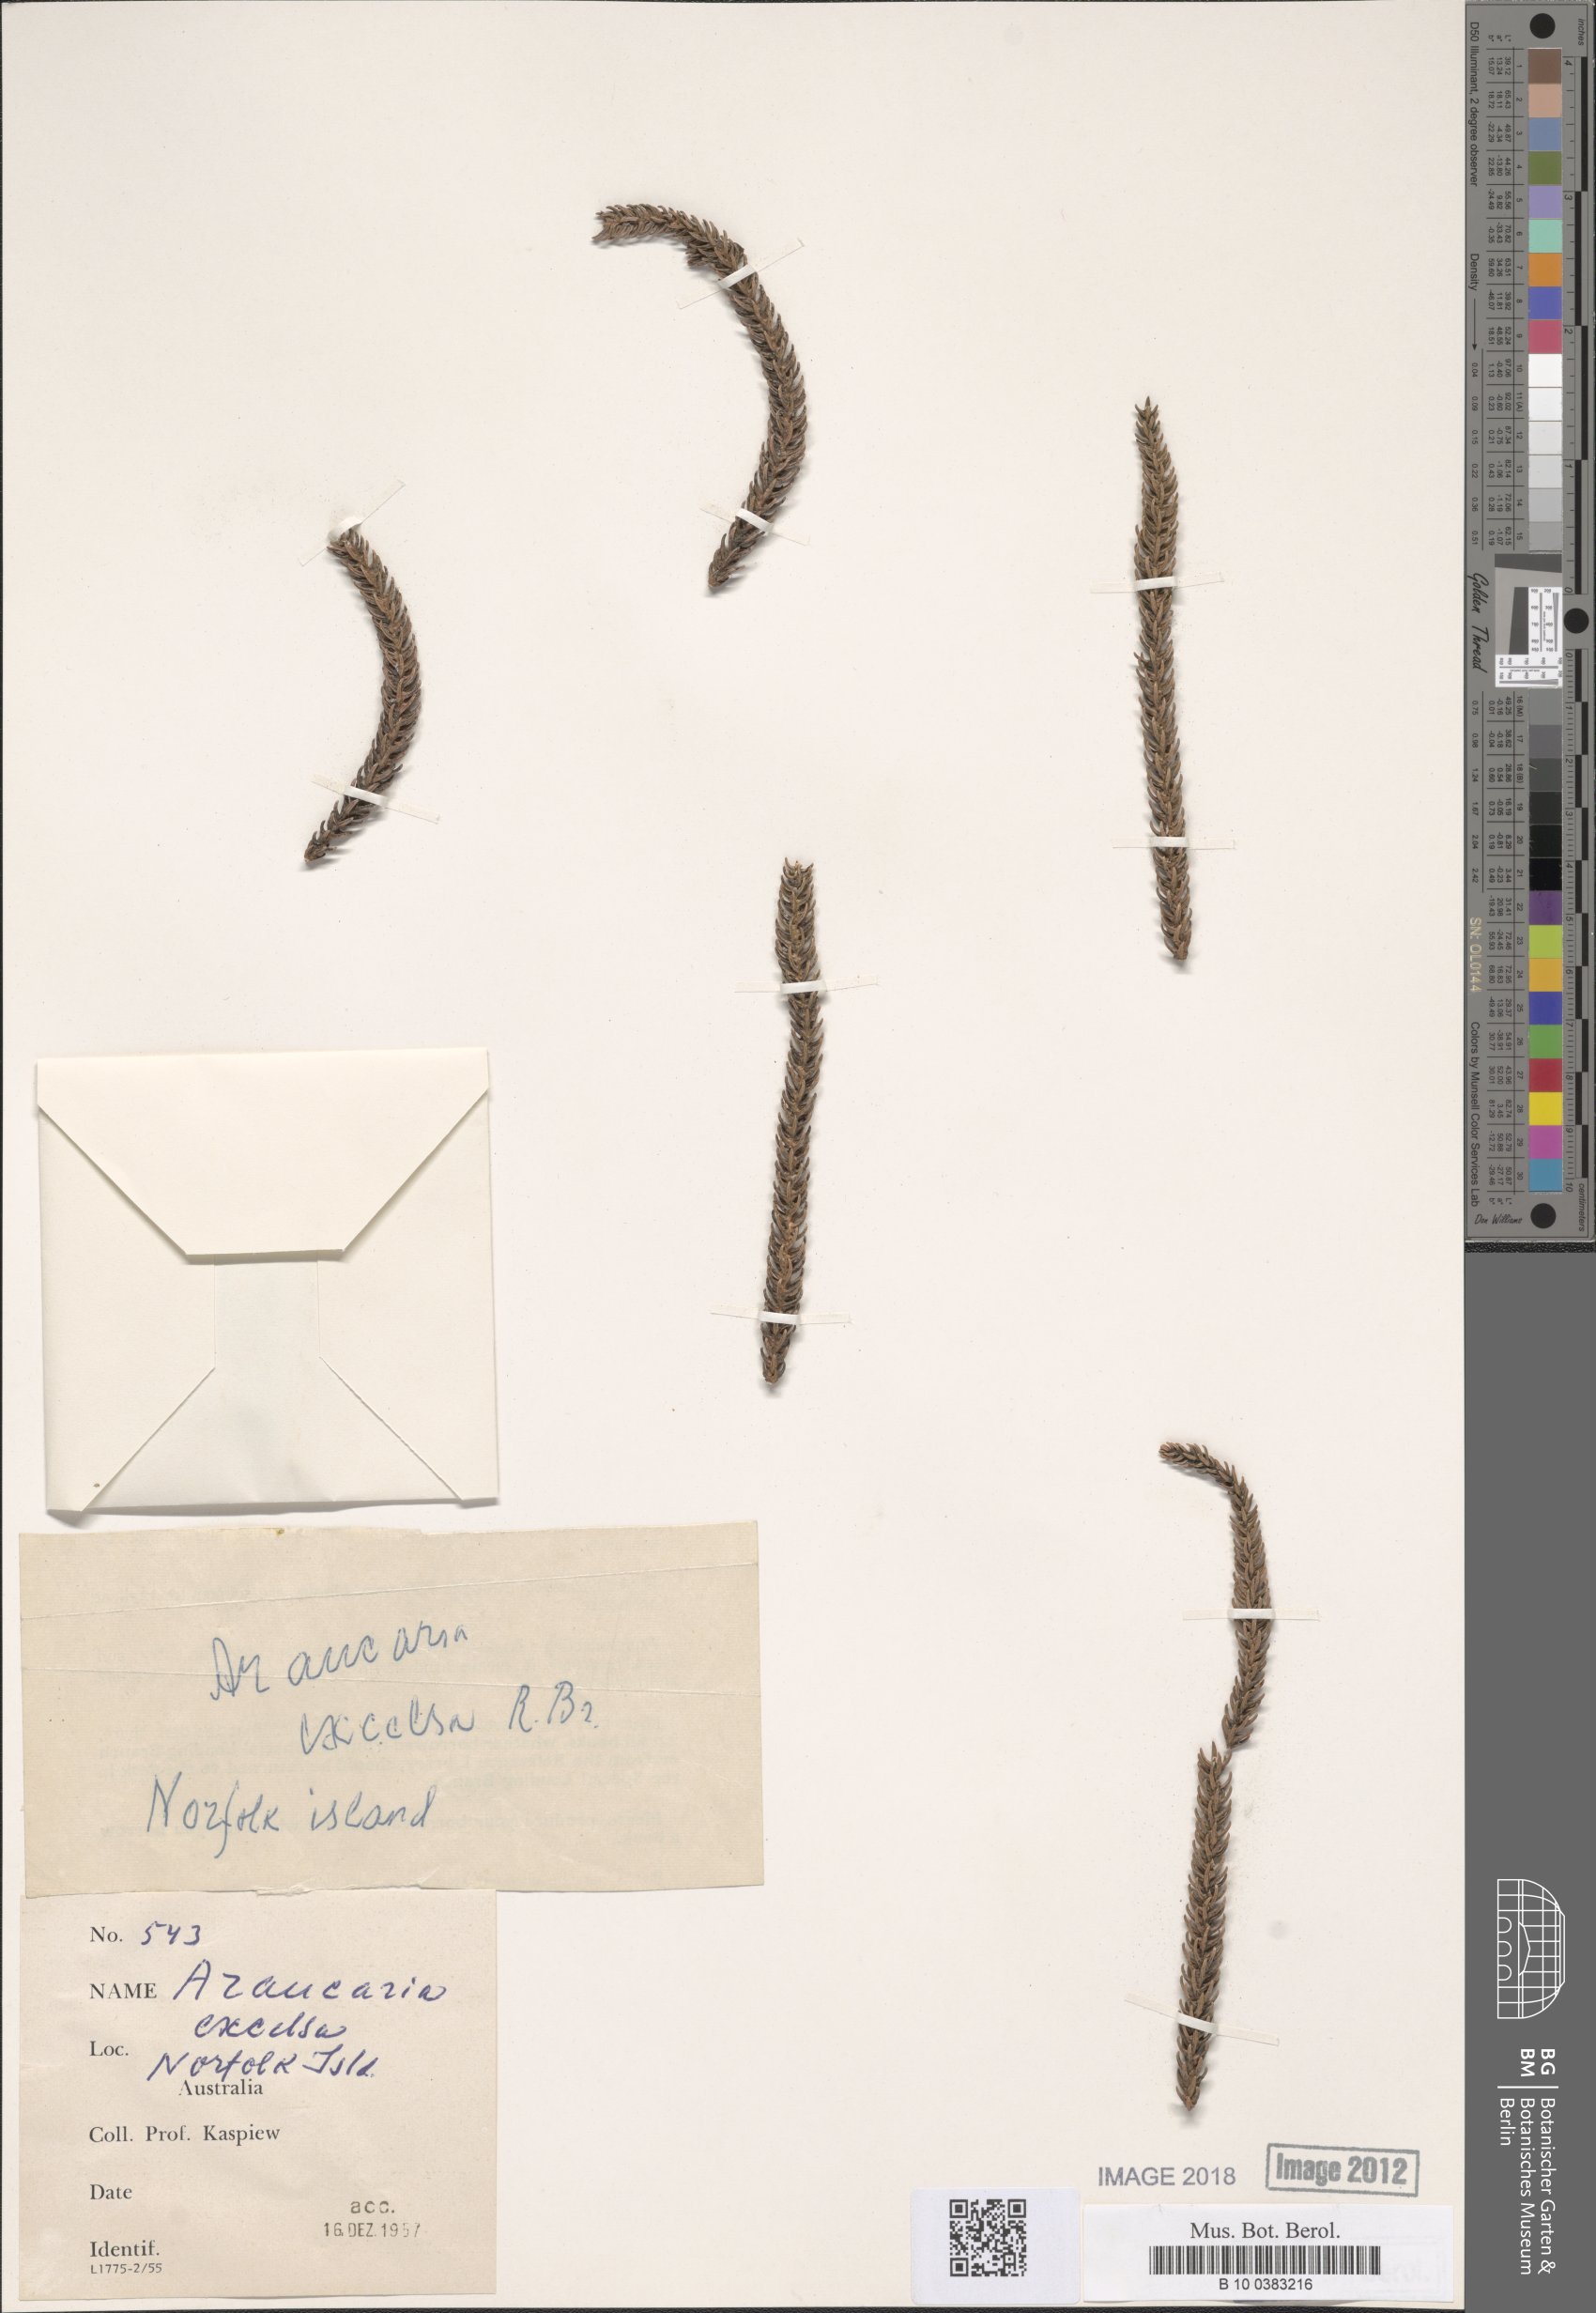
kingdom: Plantae
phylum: Tracheophyta
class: Pinopsida
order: Pinales
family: Araucariaceae
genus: Araucaria
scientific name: Araucaria columnaris
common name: Coral reef araucaria
